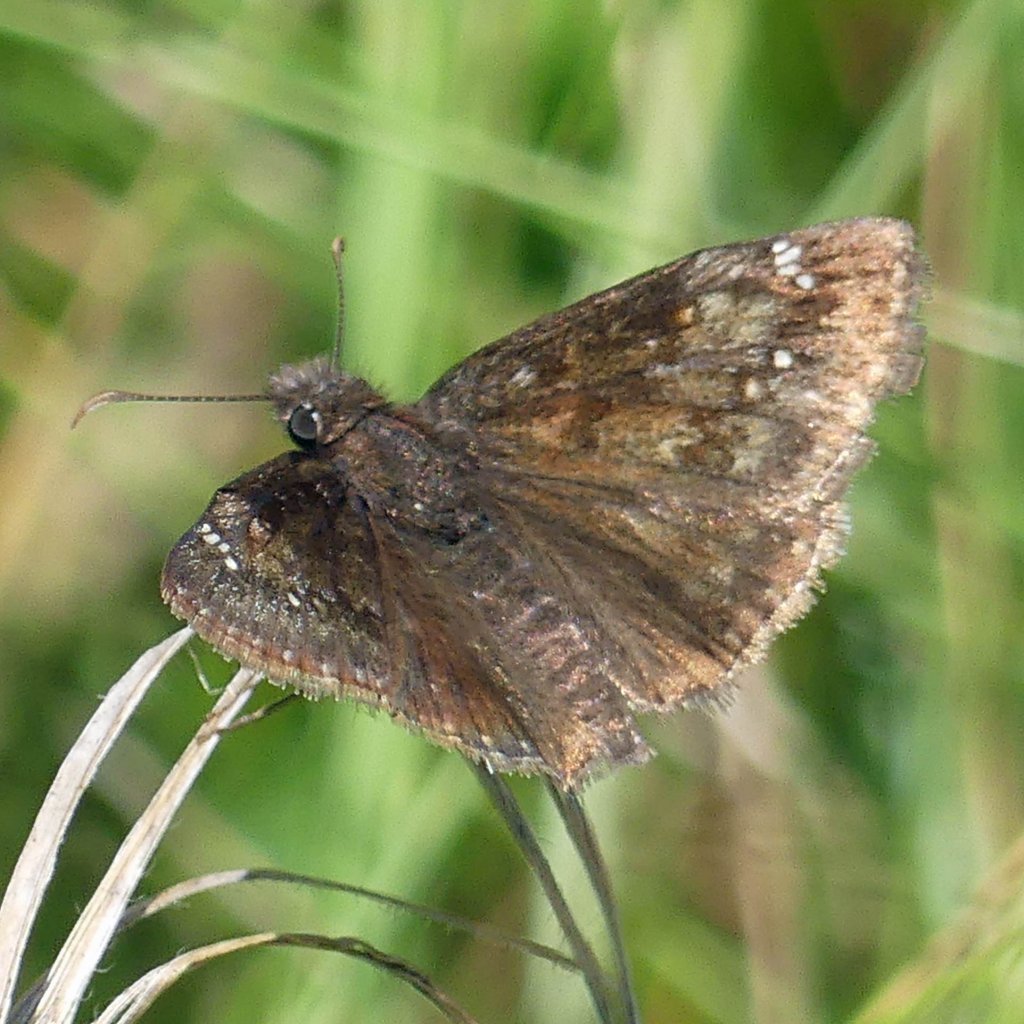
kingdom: Animalia
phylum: Arthropoda
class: Insecta
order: Lepidoptera
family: Hesperiidae
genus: Gesta
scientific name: Gesta
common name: Wild Indigo Duskywing
